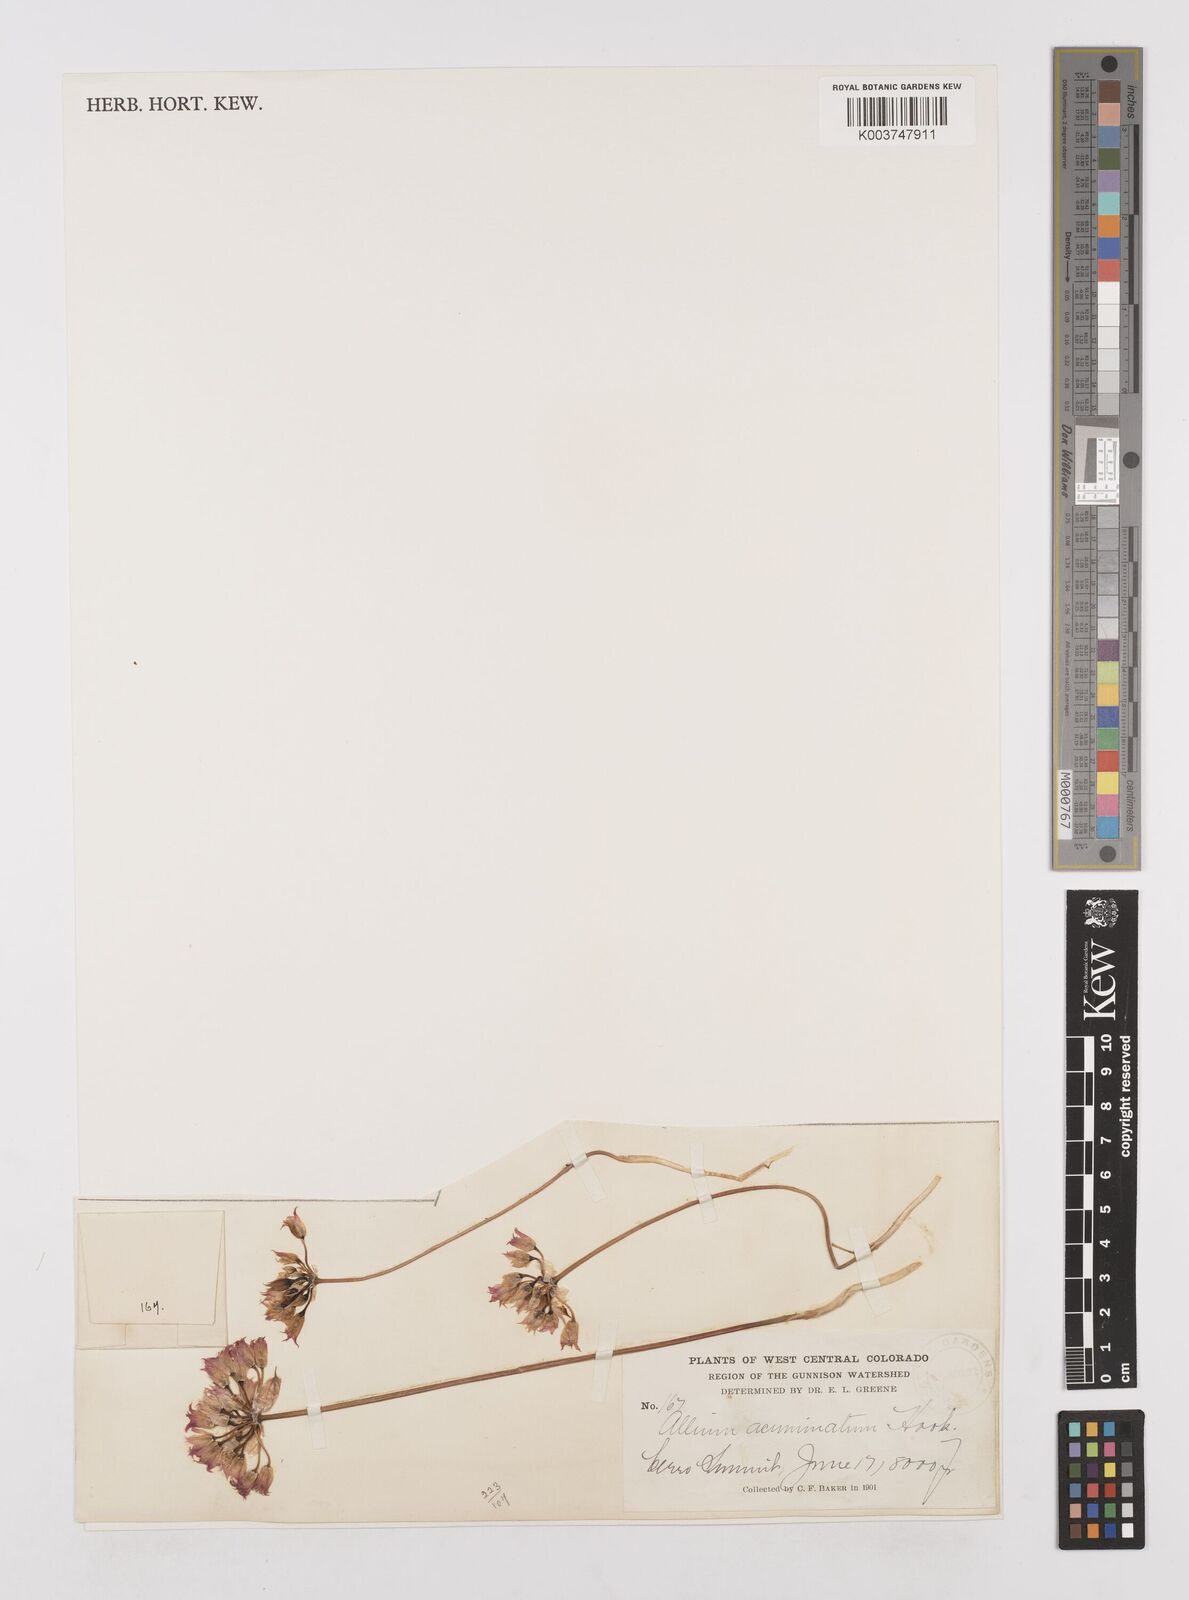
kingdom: Plantae
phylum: Tracheophyta
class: Liliopsida
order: Asparagales
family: Amaryllidaceae
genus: Allium
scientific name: Allium acuminatum
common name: Hooker's onion
